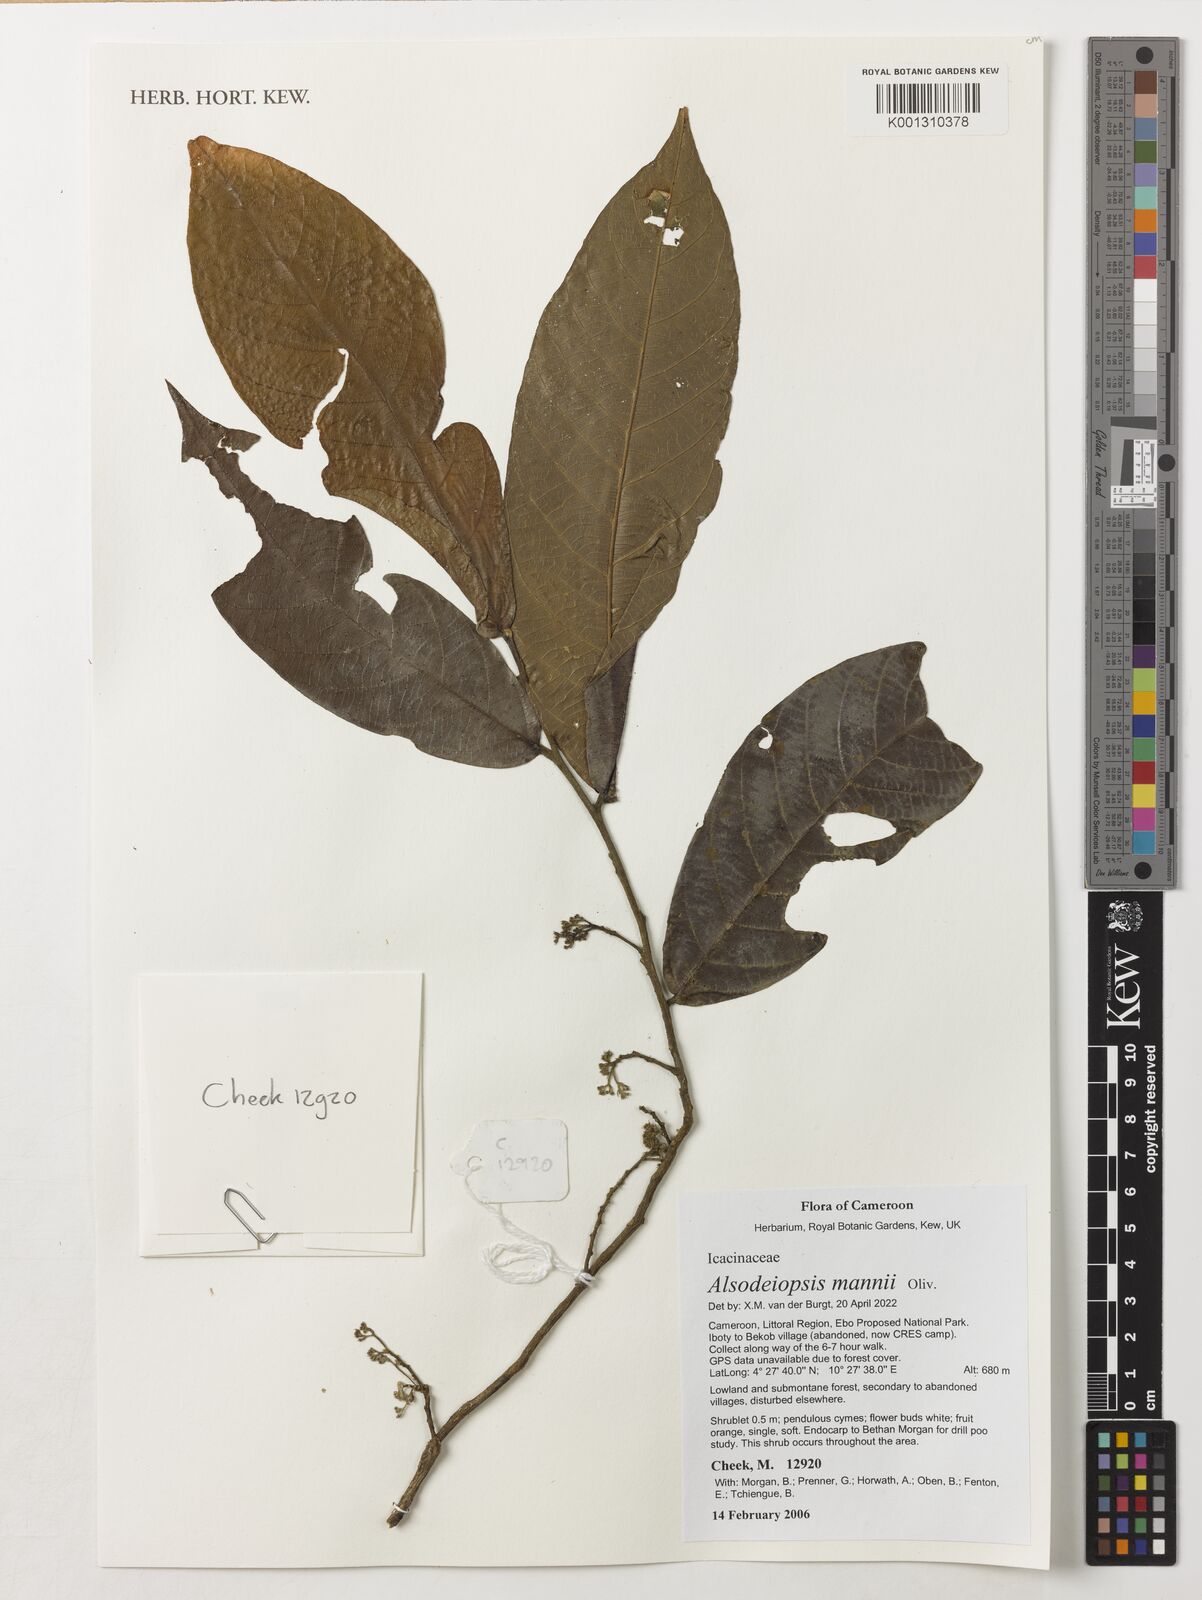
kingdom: Plantae
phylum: Tracheophyta
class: Magnoliopsida
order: Icacinales
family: Icacinaceae
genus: Alsodeiopsis
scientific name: Alsodeiopsis mannii
